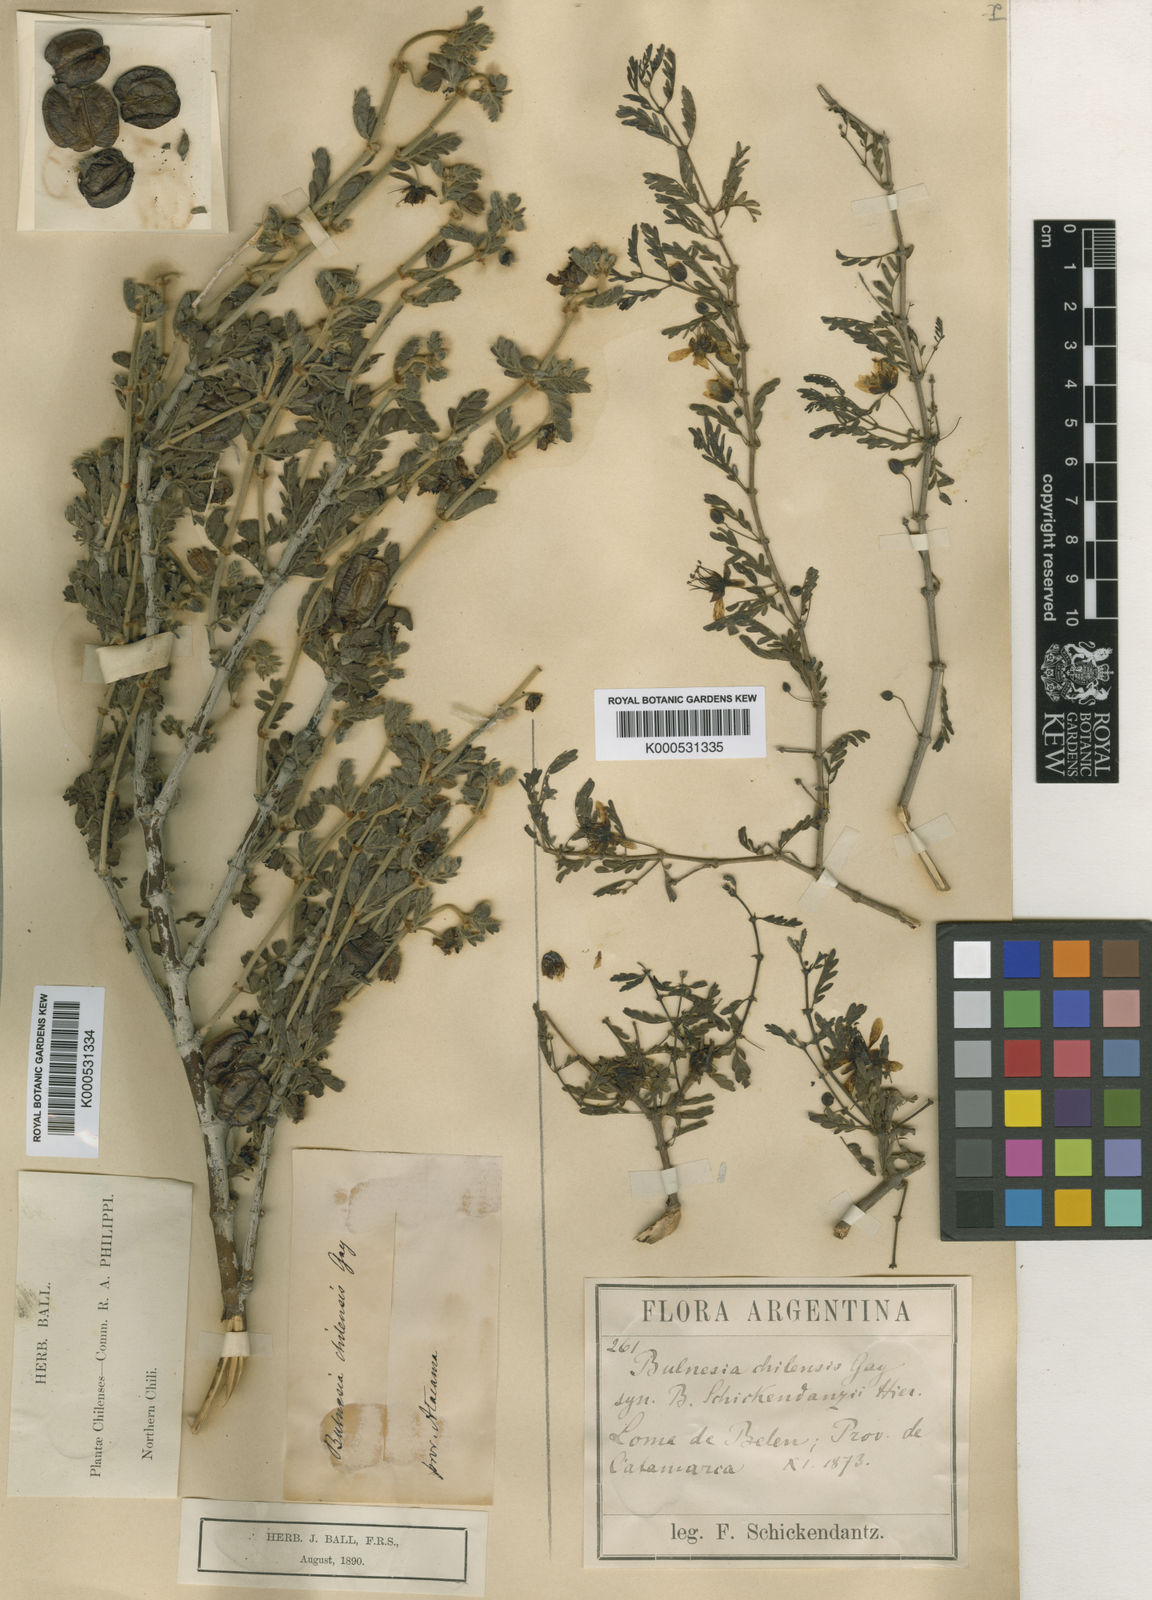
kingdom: Plantae
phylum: Tracheophyta
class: Magnoliopsida
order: Zygophyllales
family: Zygophyllaceae
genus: Bulnesia
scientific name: Bulnesia chilensis
